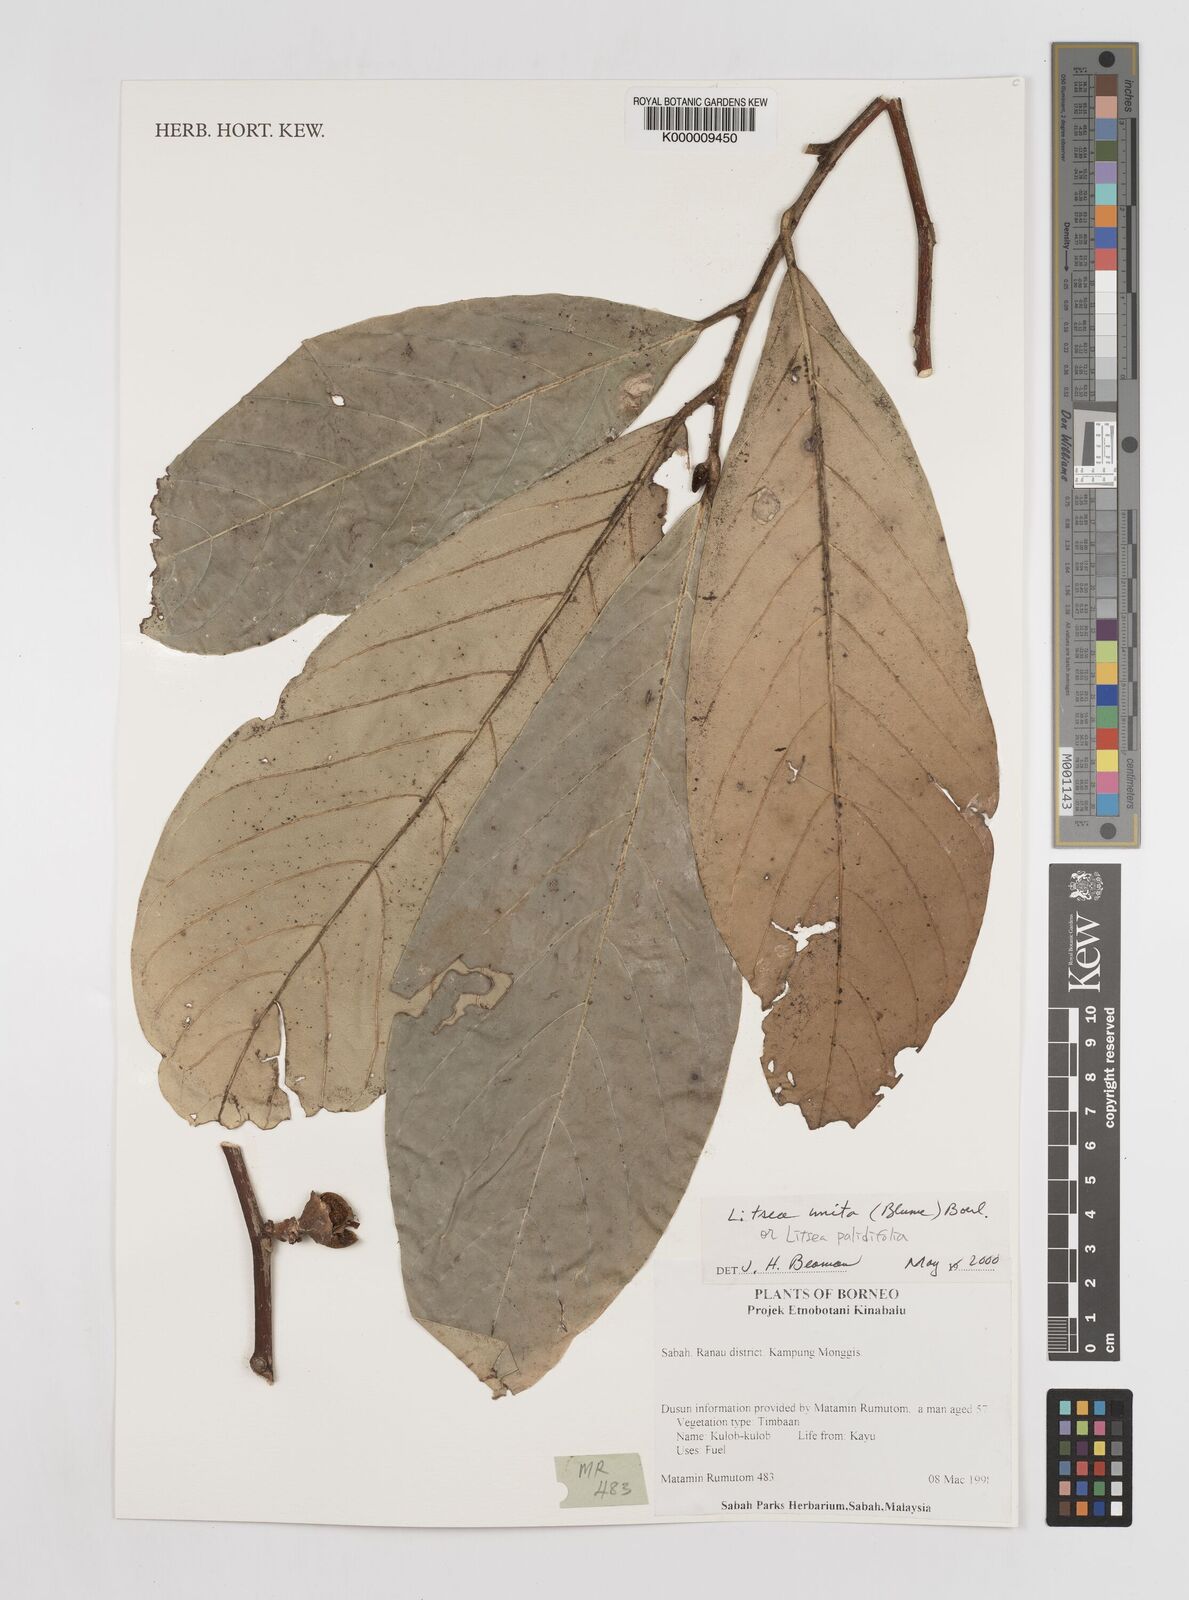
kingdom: Plantae
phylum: Tracheophyta
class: Magnoliopsida
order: Laurales
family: Lauraceae
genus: Litsea
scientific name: Litsea unita
